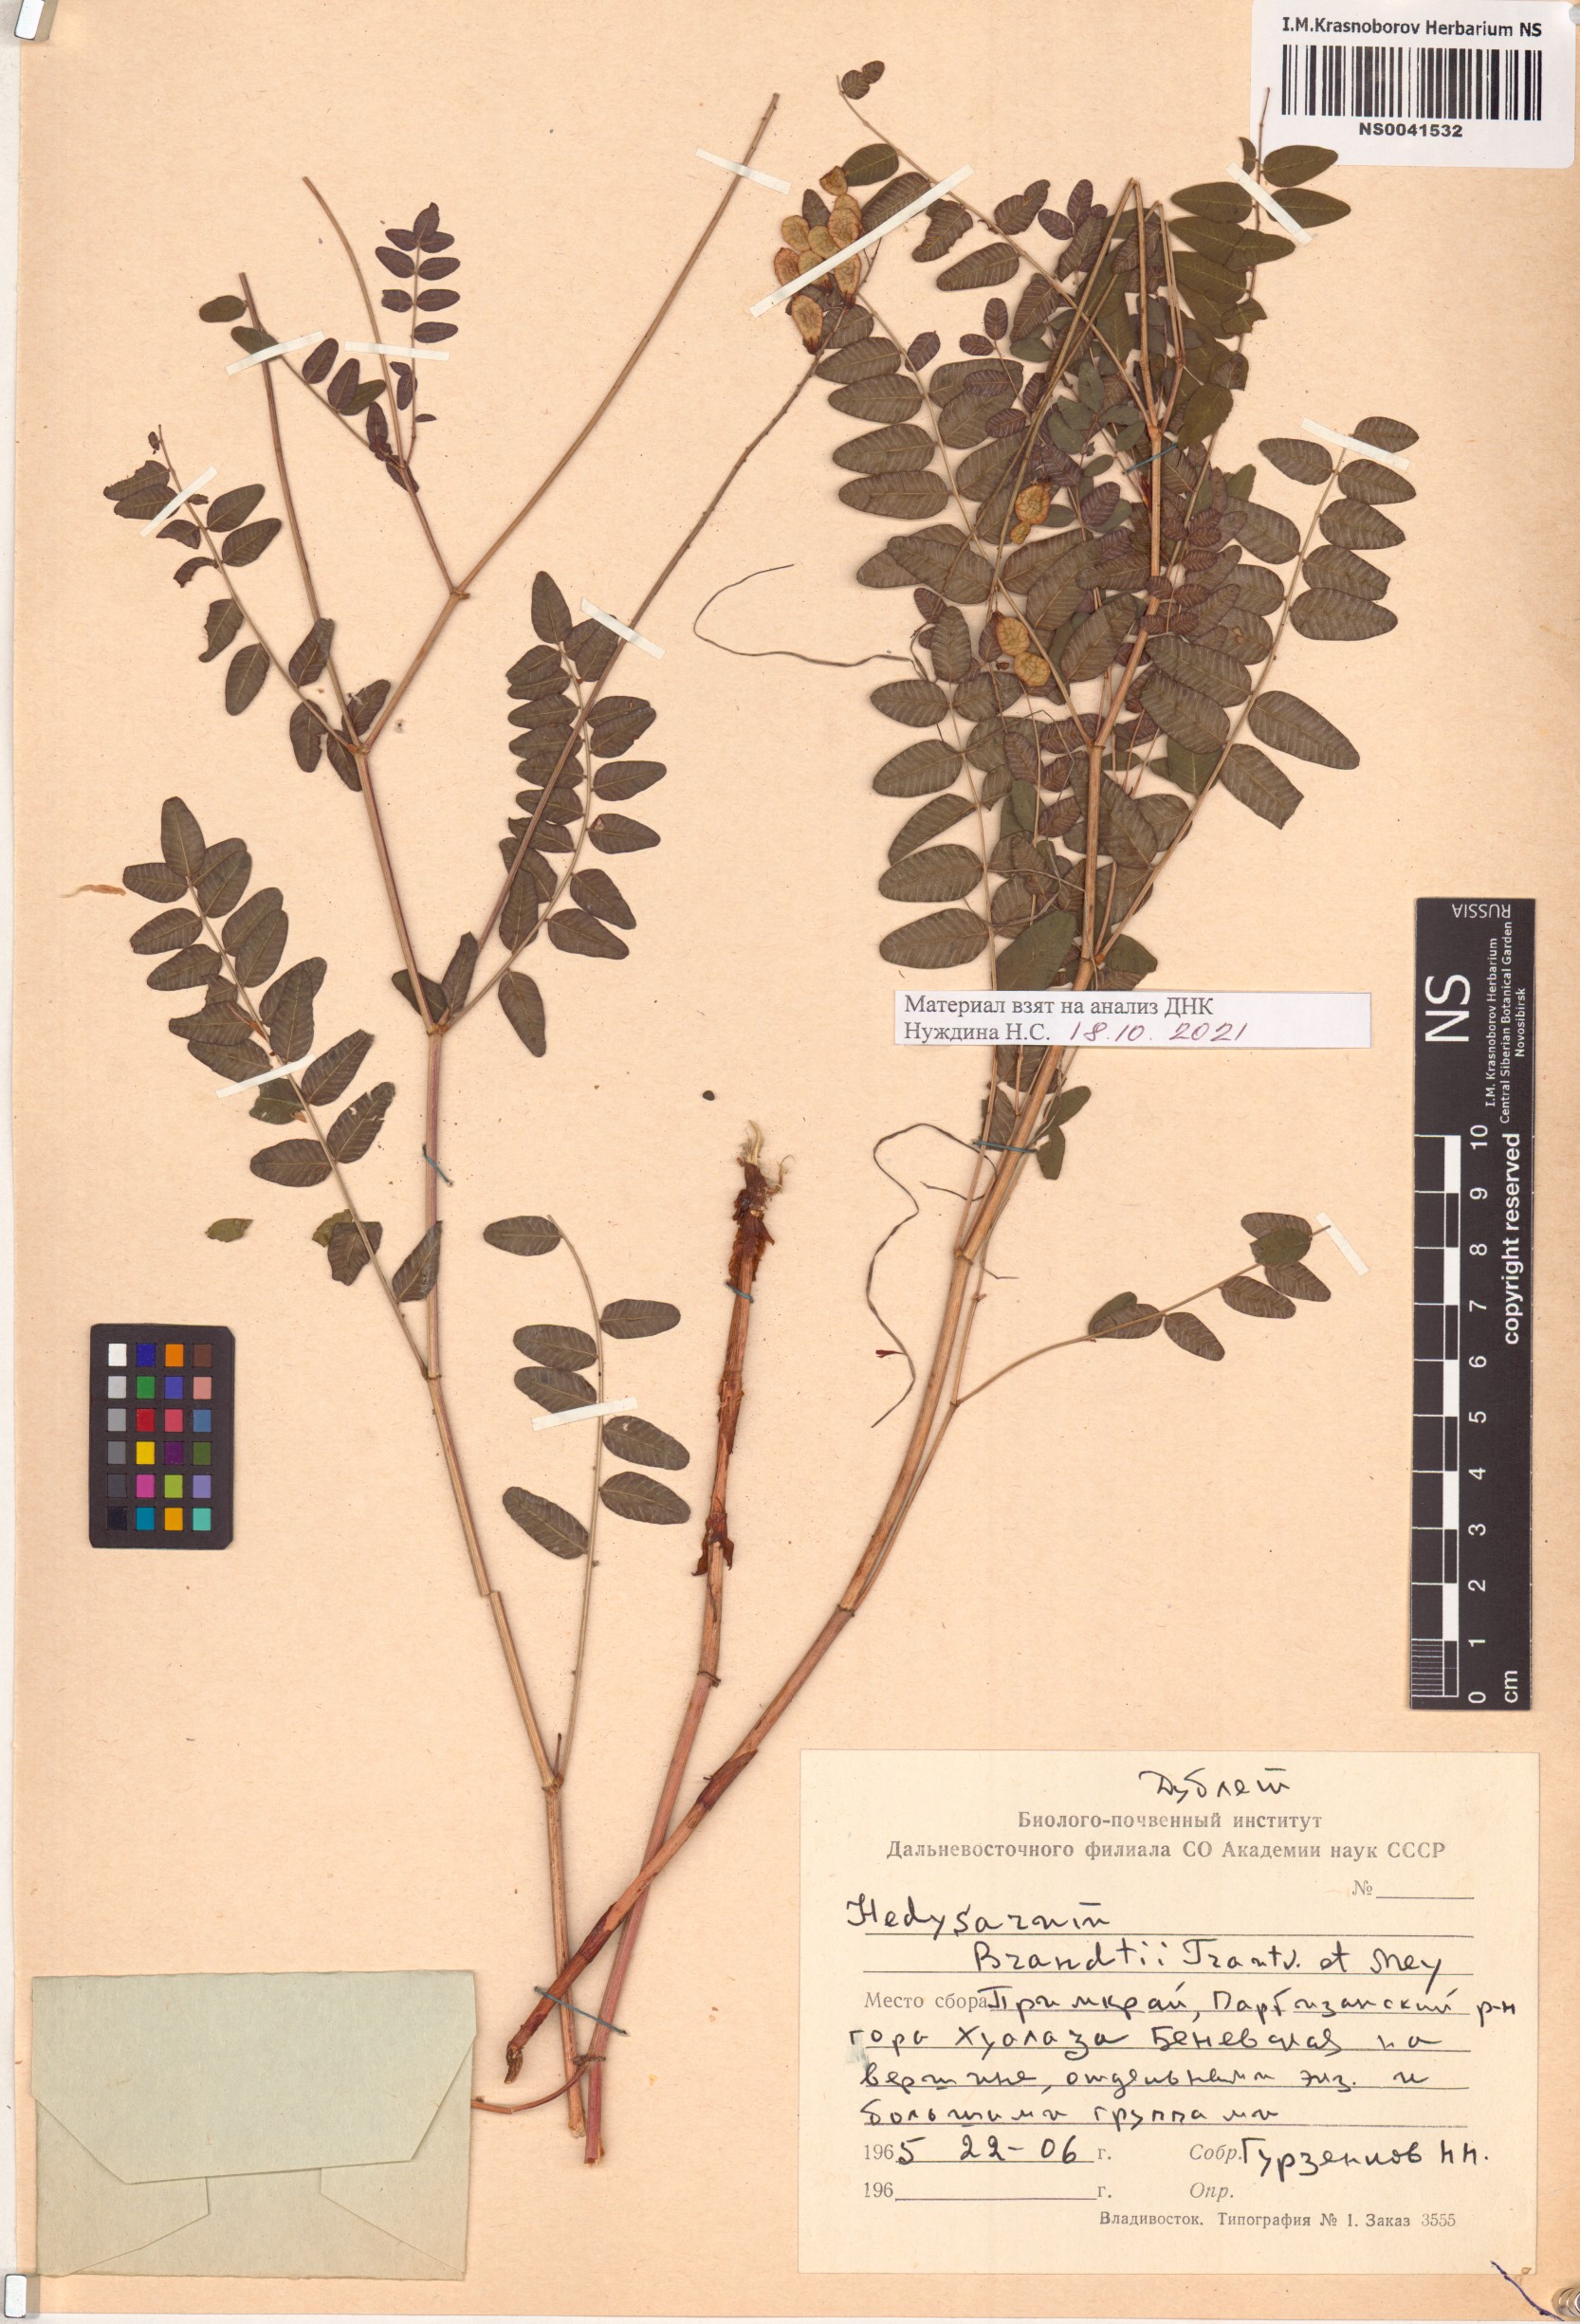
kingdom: Plantae
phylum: Tracheophyta
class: Magnoliopsida
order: Fabales
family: Fabaceae
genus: Hedysarum
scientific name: Hedysarum branthii
